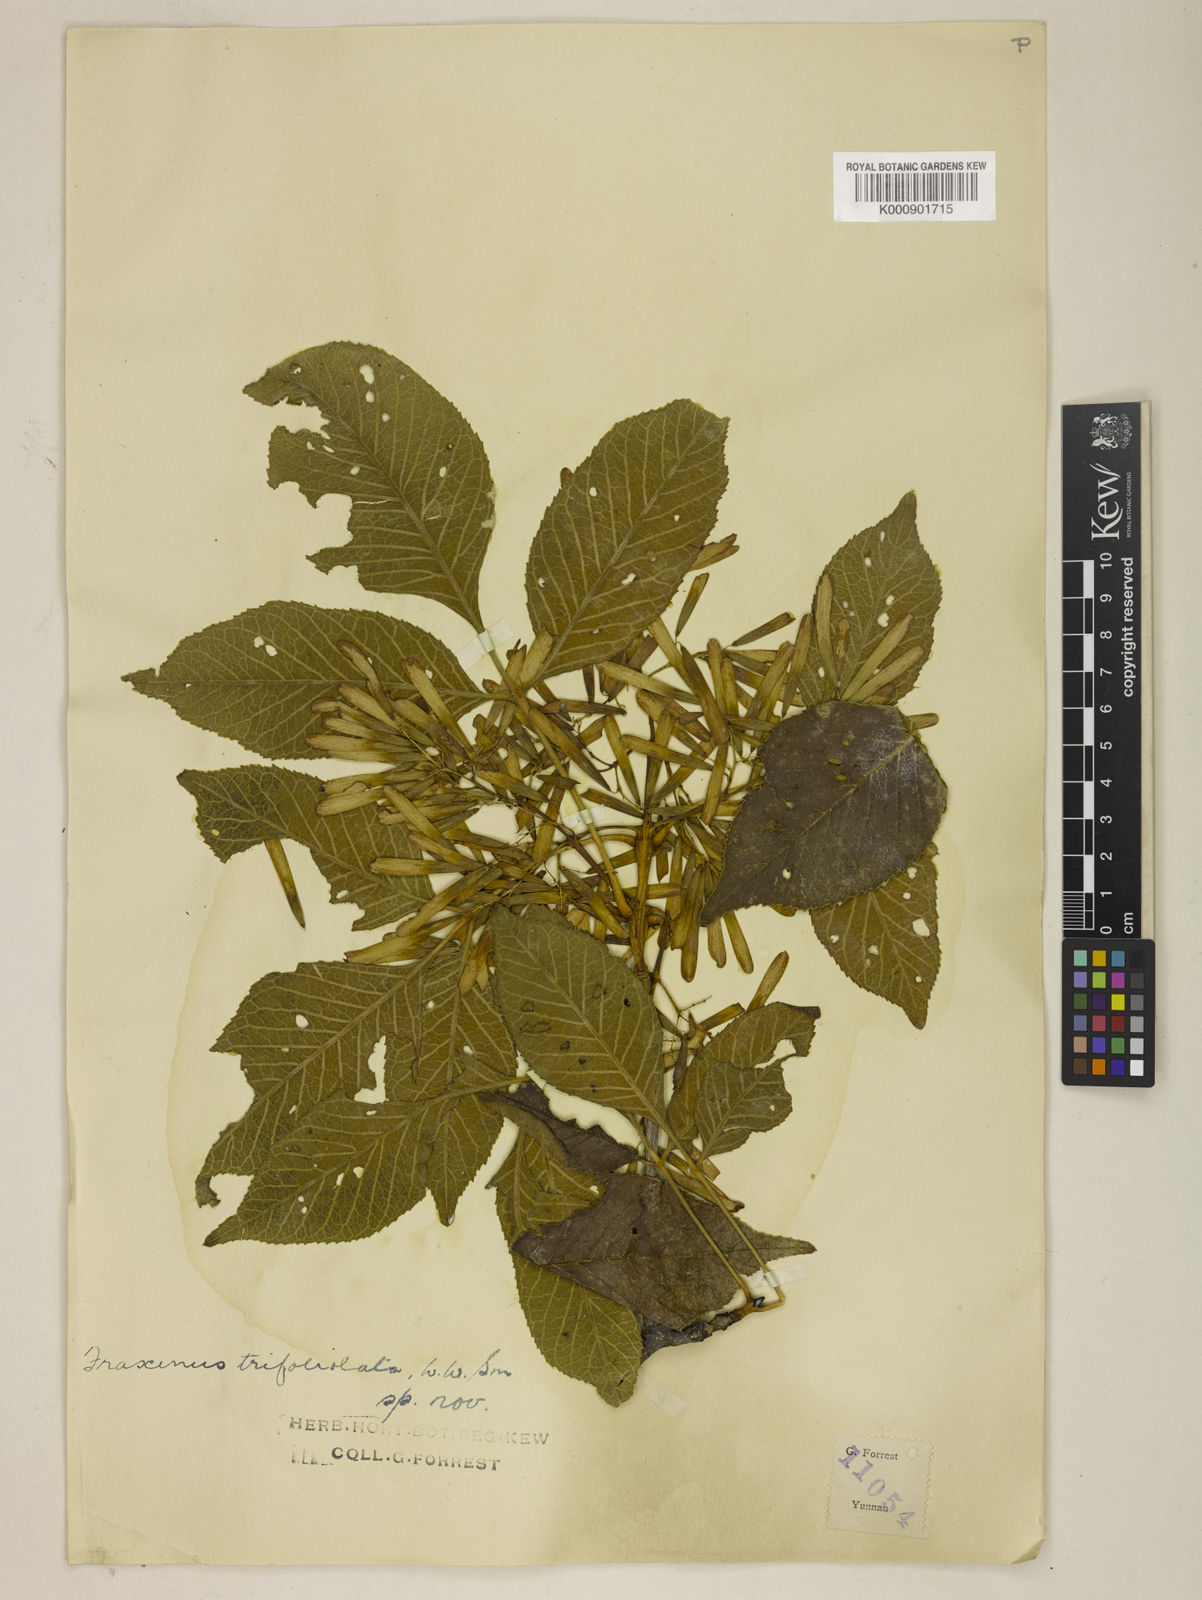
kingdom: Plantae
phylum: Tracheophyta
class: Magnoliopsida
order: Lamiales
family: Oleaceae
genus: Fraxinus
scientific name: Fraxinus trifoliolata
